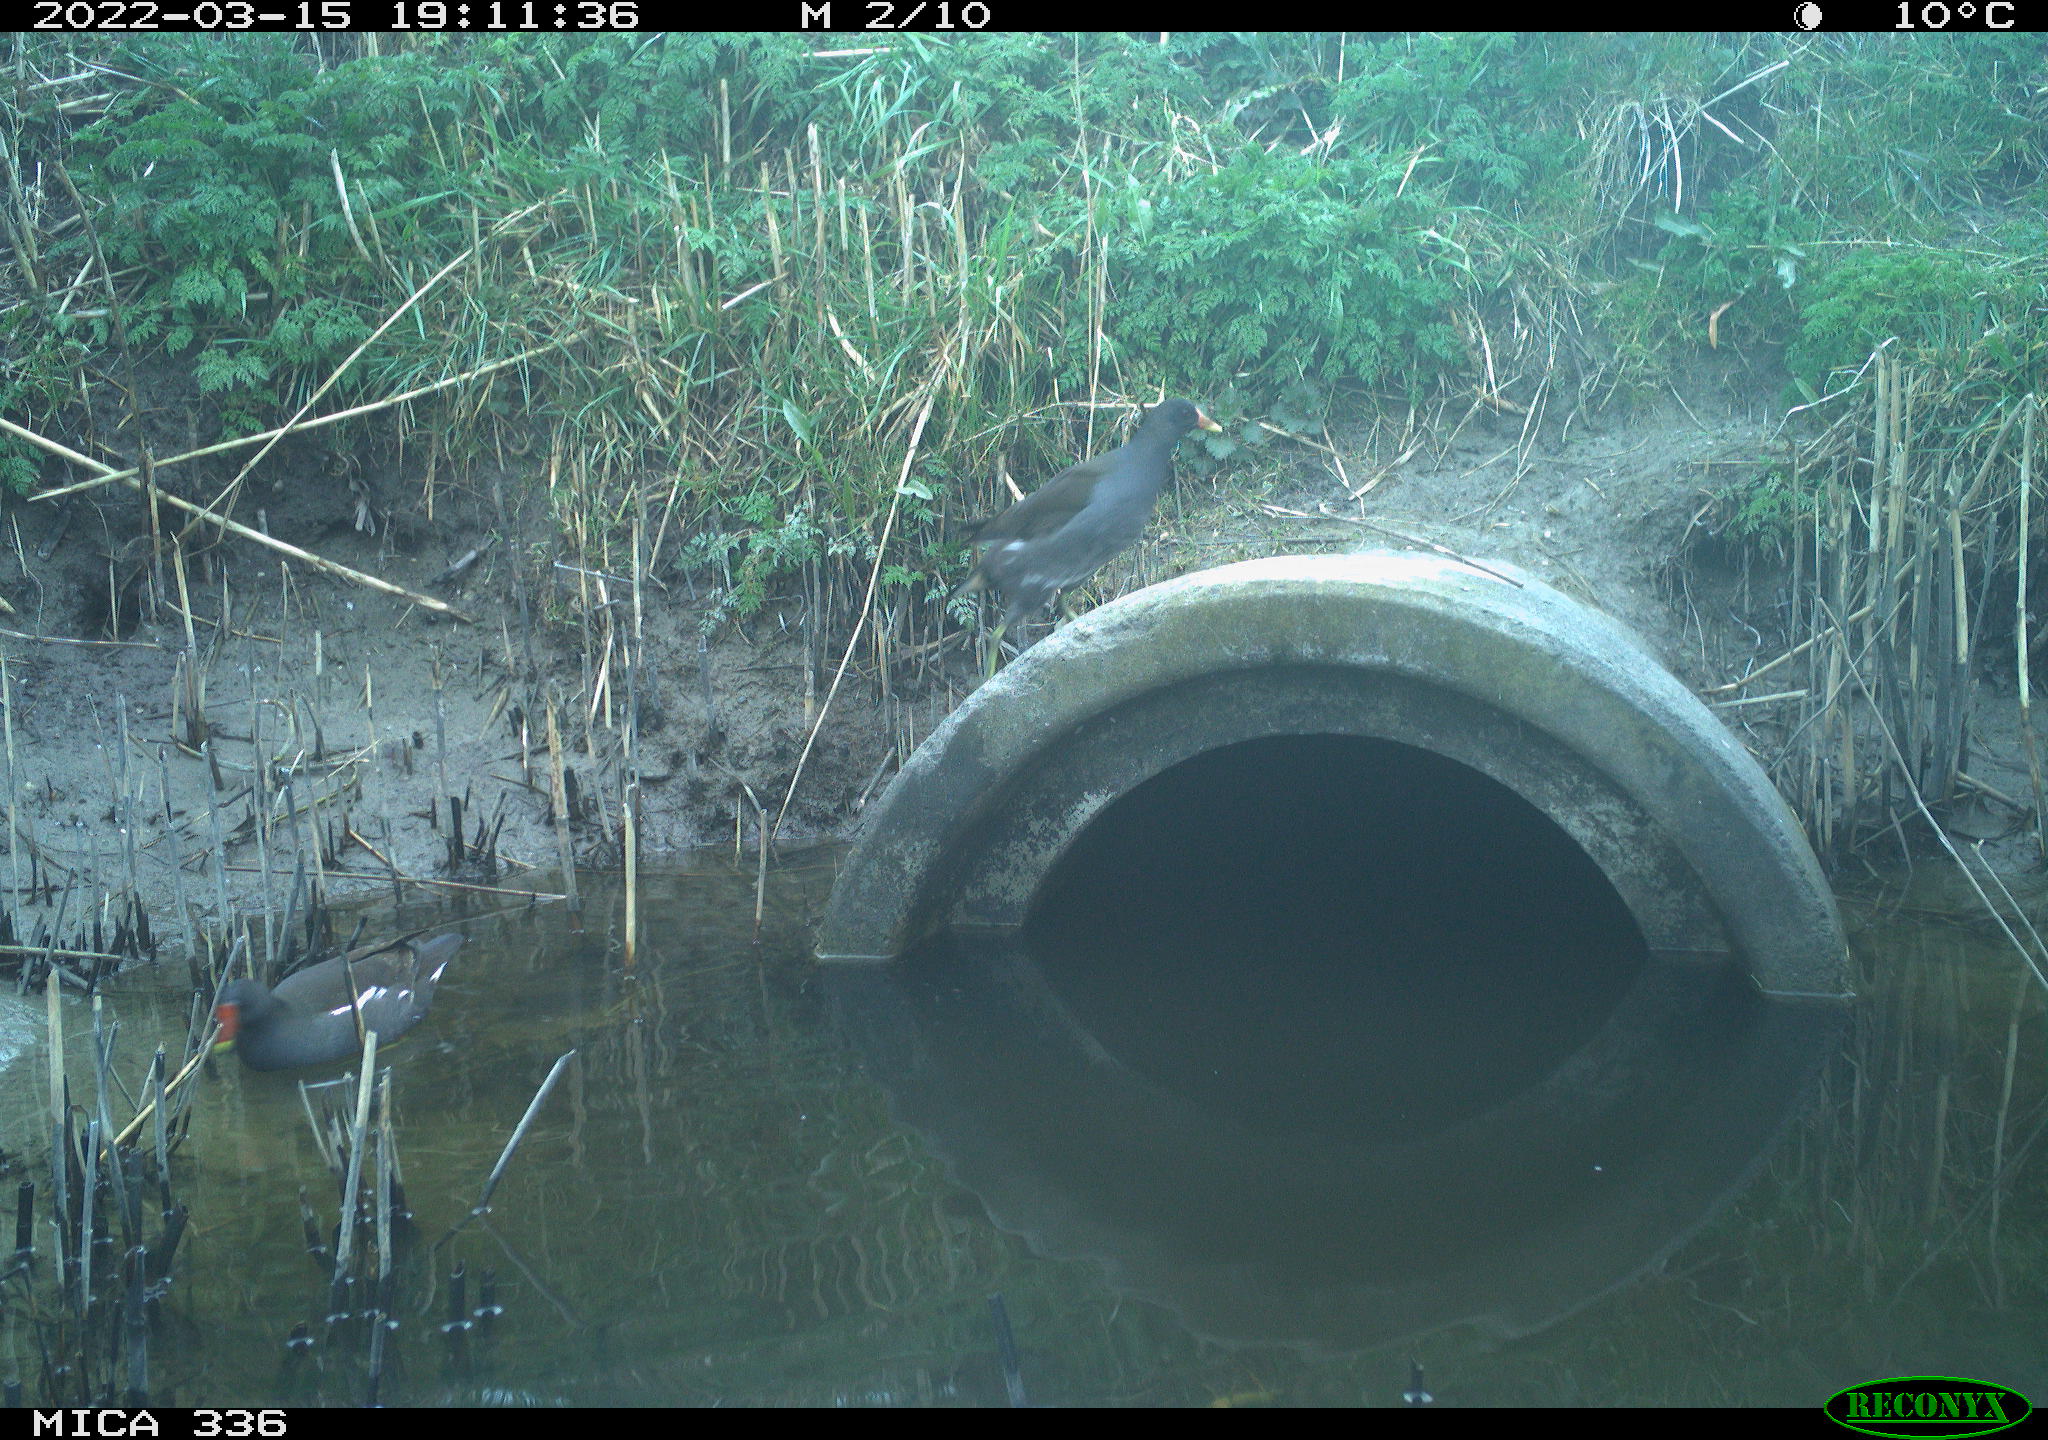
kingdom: Animalia
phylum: Chordata
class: Aves
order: Gruiformes
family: Rallidae
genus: Gallinula
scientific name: Gallinula chloropus
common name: Common moorhen
